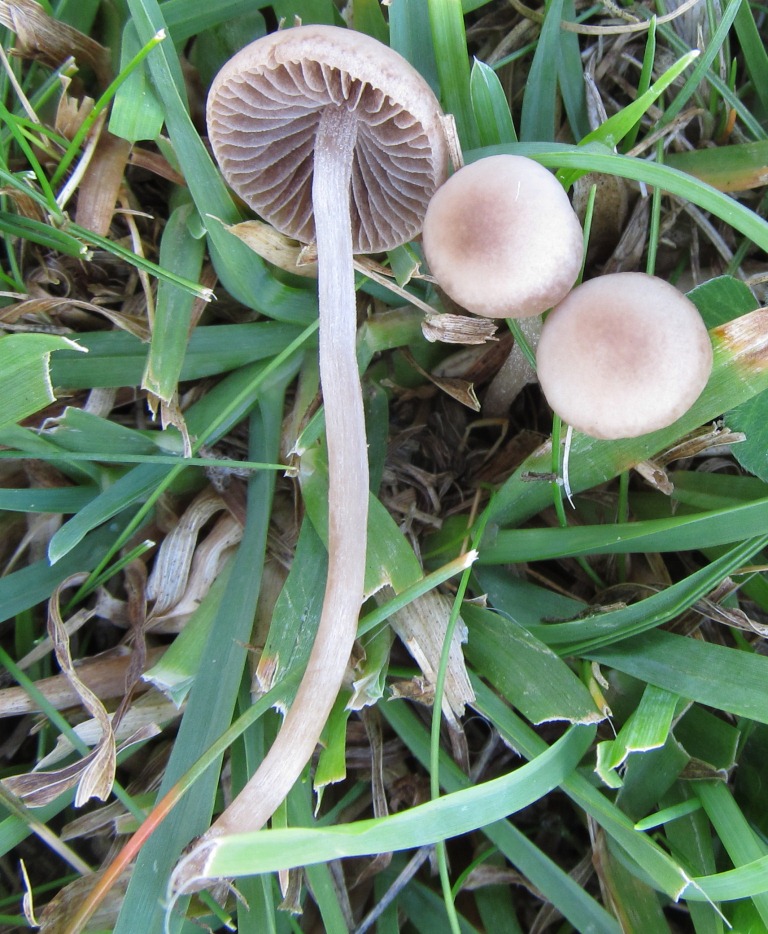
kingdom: Fungi
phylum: Basidiomycota
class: Agaricomycetes
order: Agaricales
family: Bolbitiaceae
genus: Panaeolina
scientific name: Panaeolina foenisecii
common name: høslætsvamp
